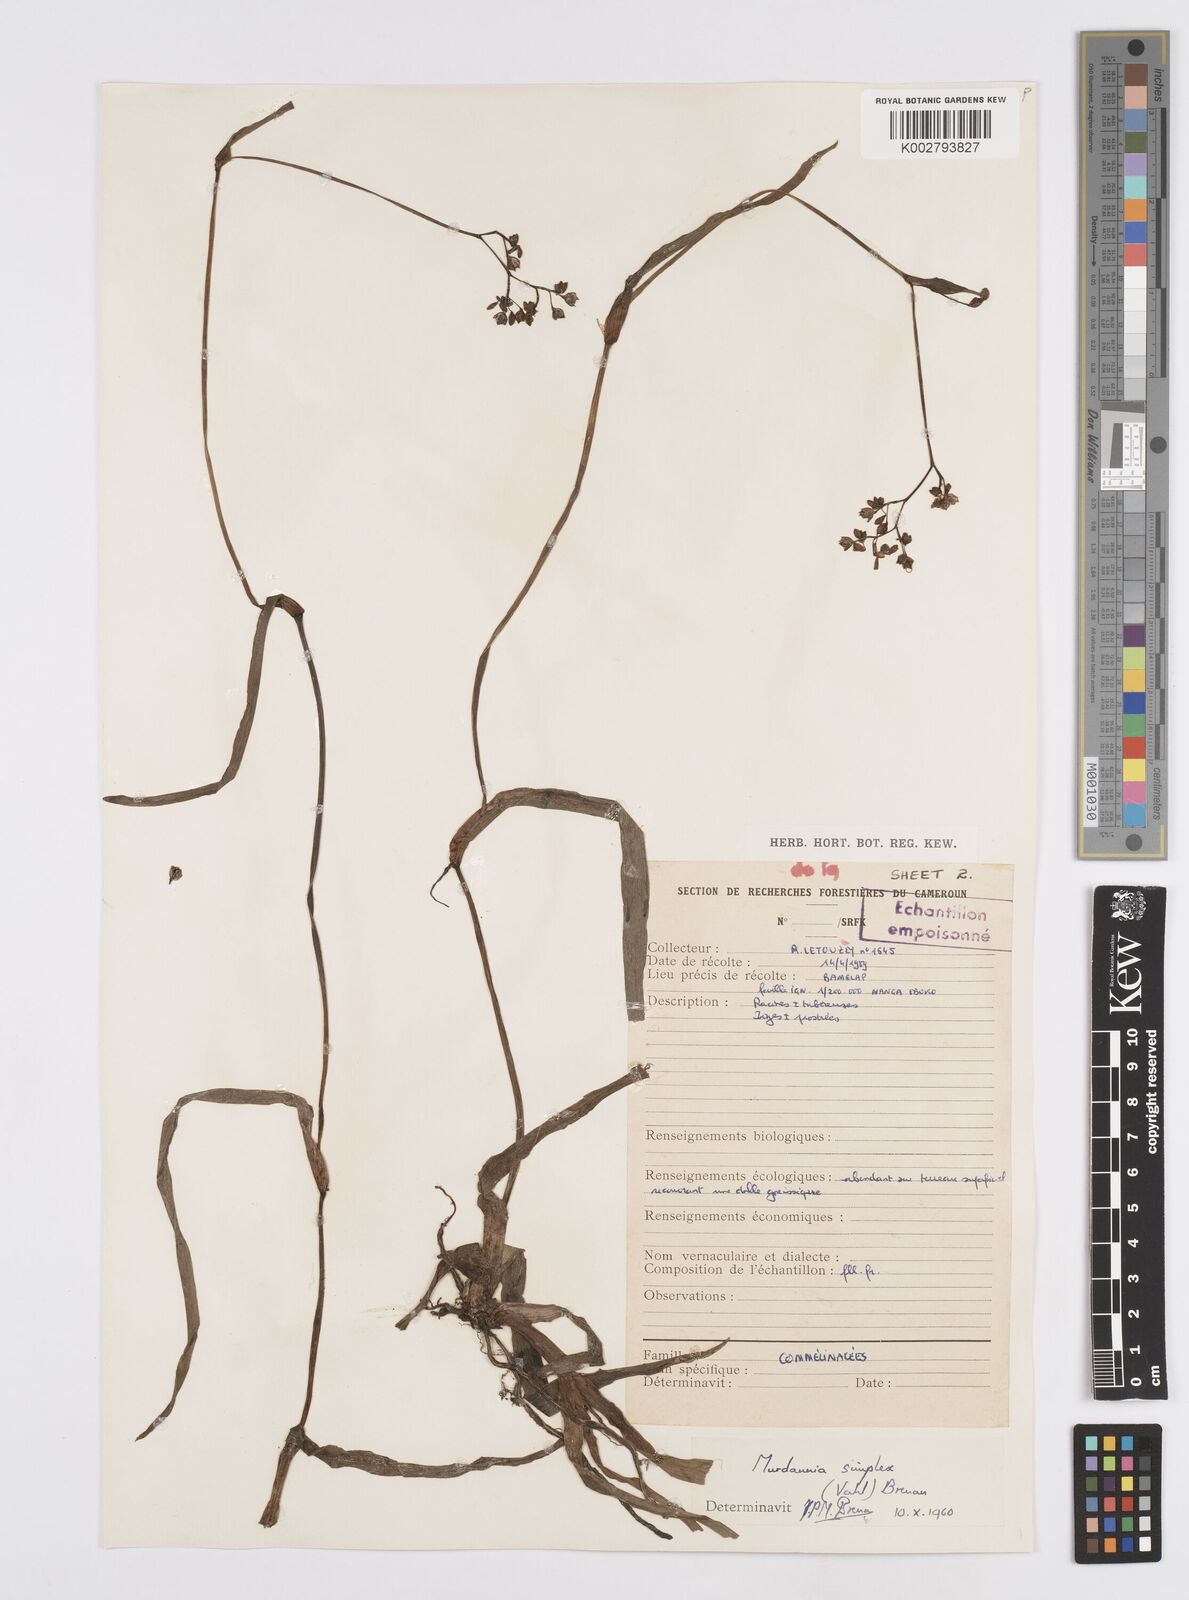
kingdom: Plantae
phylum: Tracheophyta
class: Liliopsida
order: Commelinales
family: Commelinaceae
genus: Murdannia
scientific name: Murdannia simplex
